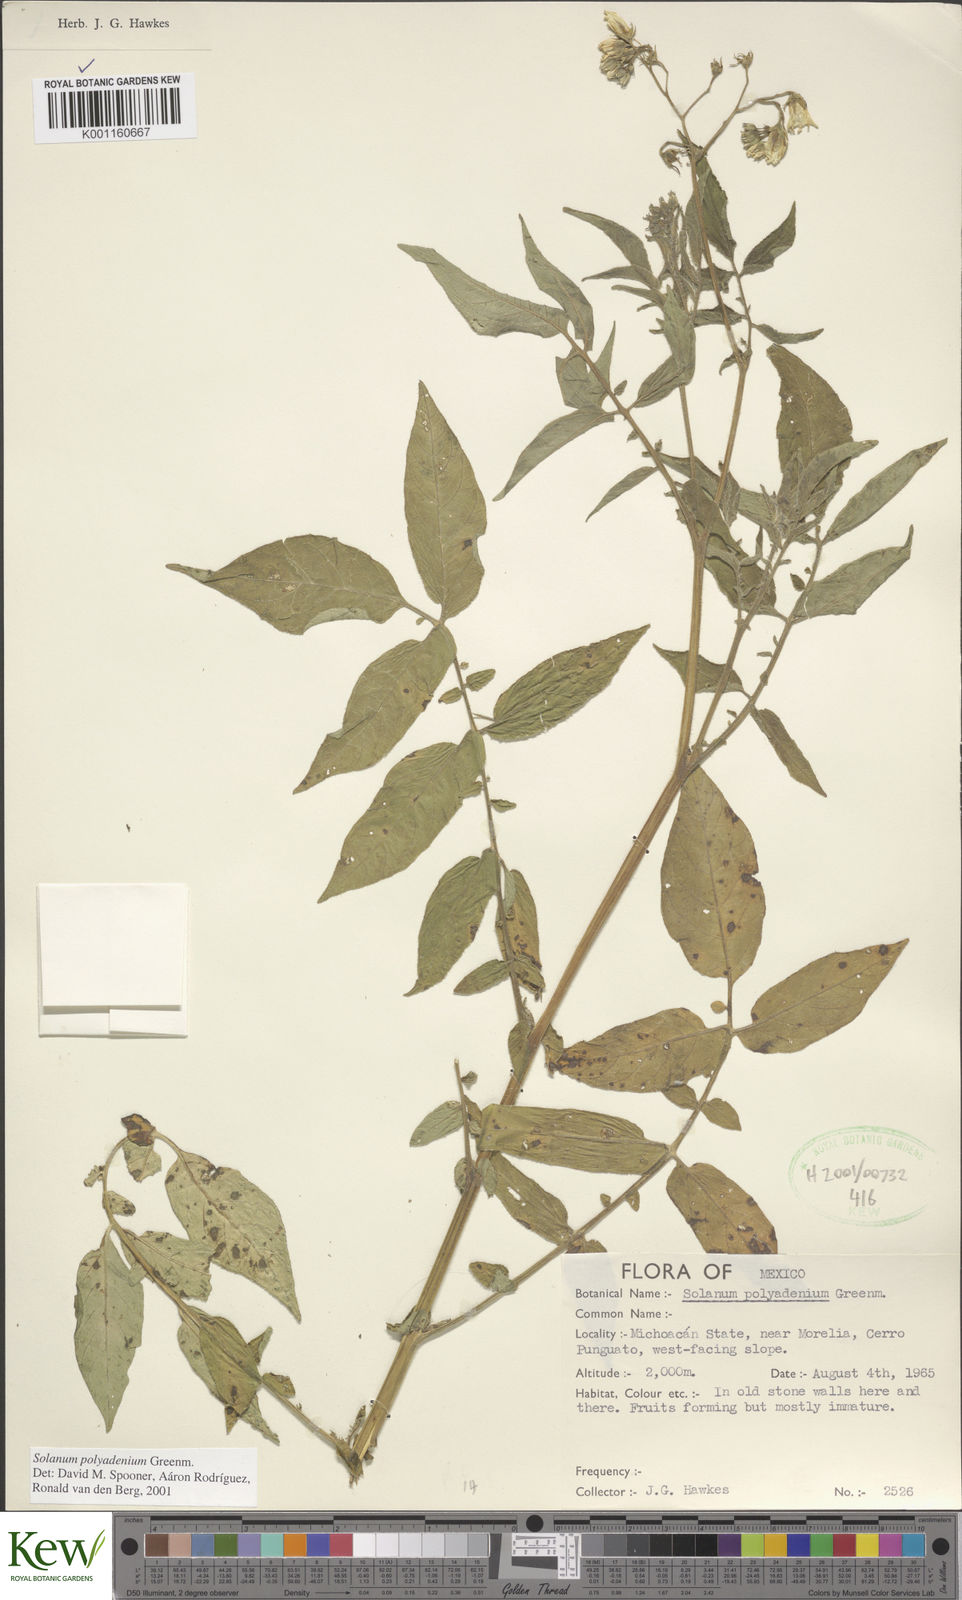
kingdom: Plantae
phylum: Tracheophyta
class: Magnoliopsida
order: Solanales
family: Solanaceae
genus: Solanum
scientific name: Solanum polyadenium
